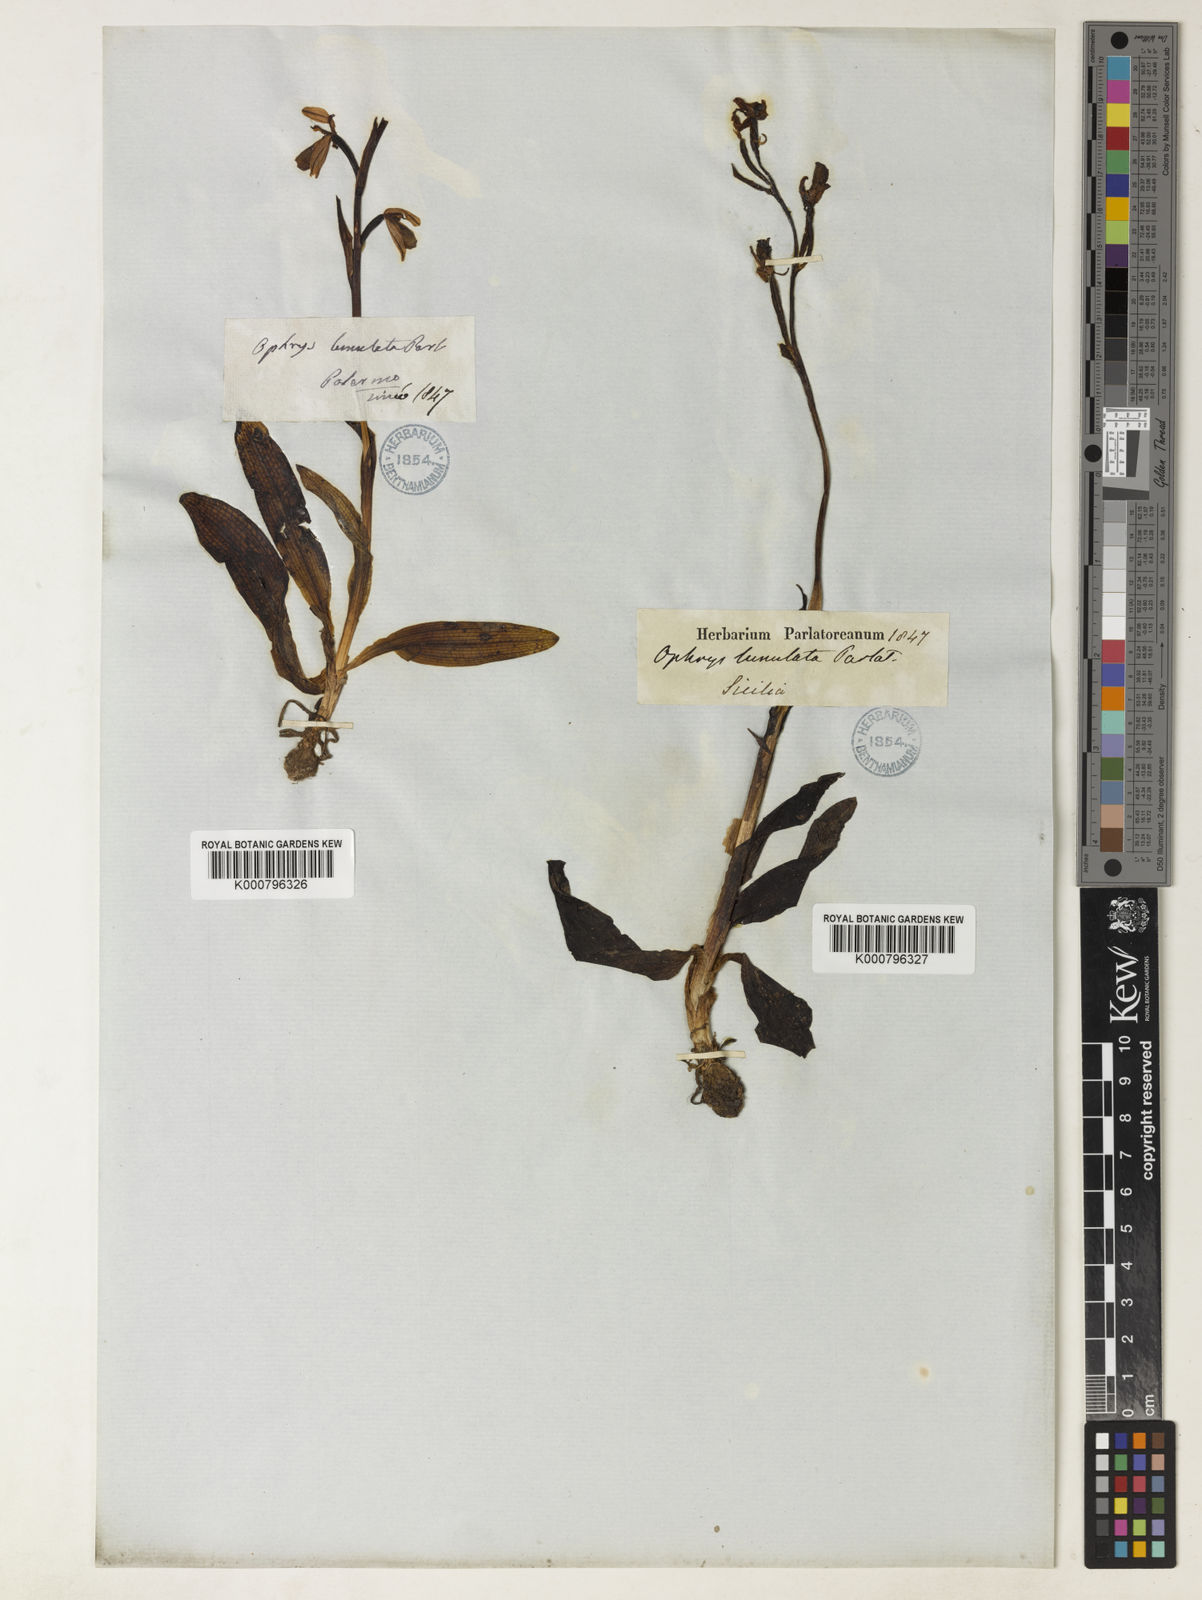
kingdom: Plantae
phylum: Tracheophyta
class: Liliopsida
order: Asparagales
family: Orchidaceae
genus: Ophrys
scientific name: Ophrys lunulata
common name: Lunulate ophrys
